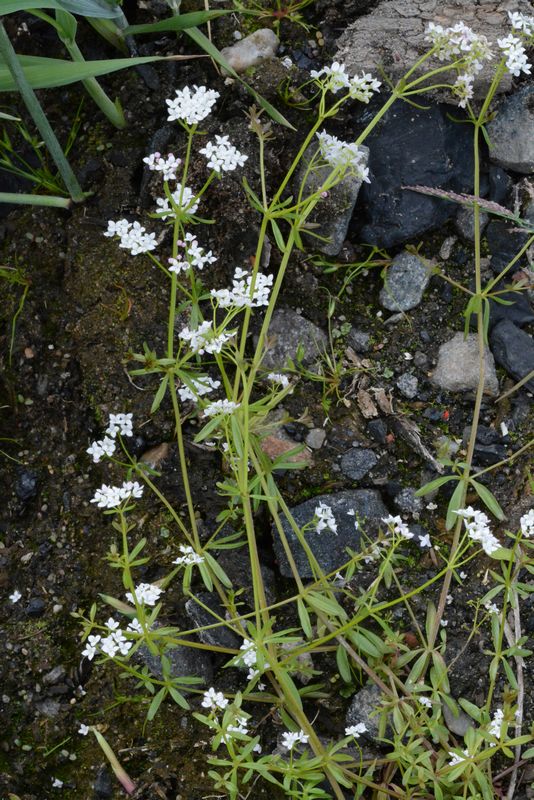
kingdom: Plantae
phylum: Tracheophyta
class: Magnoliopsida
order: Gentianales
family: Rubiaceae
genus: Galium
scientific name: Galium palustre
